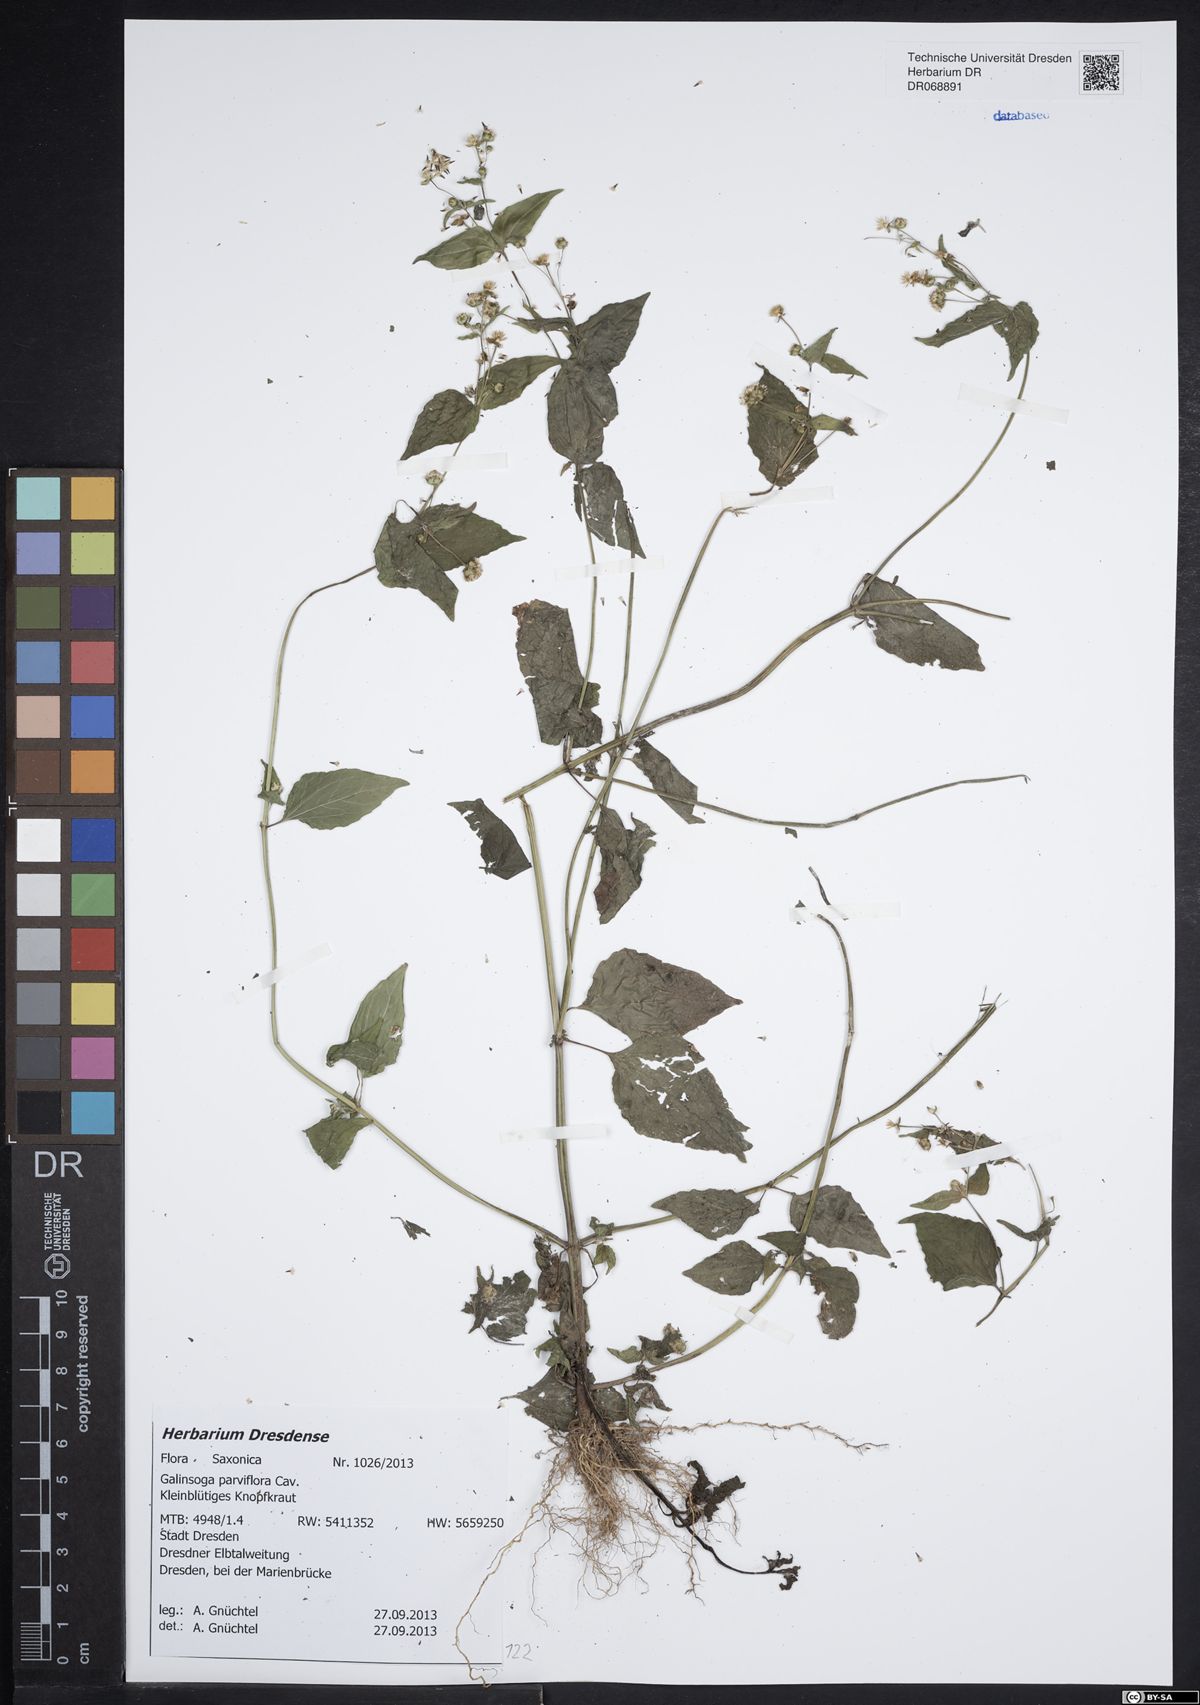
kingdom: Plantae
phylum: Tracheophyta
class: Magnoliopsida
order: Asterales
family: Asteraceae
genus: Galinsoga
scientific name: Galinsoga parviflora
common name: Gallant soldier
